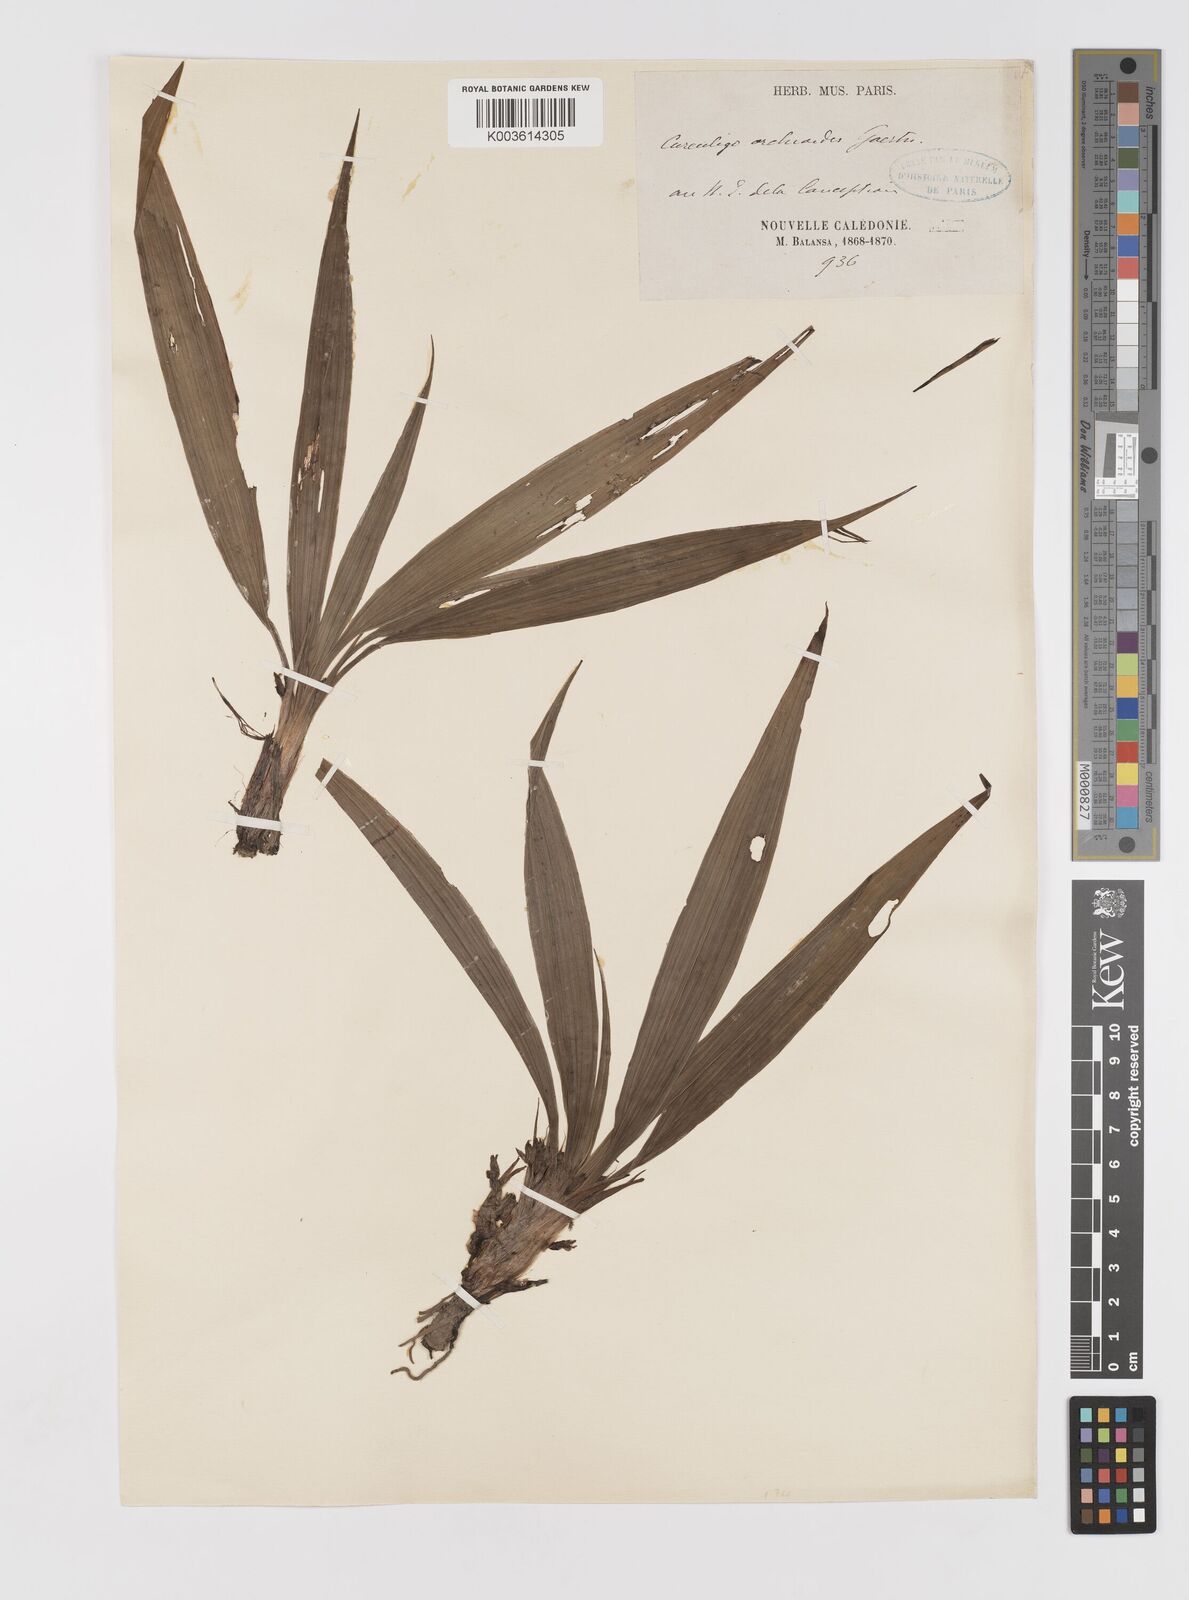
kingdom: Plantae
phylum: Tracheophyta
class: Liliopsida
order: Asparagales
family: Hypoxidaceae
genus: Curculigo
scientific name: Curculigo orchioides
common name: Golden eye-grass
